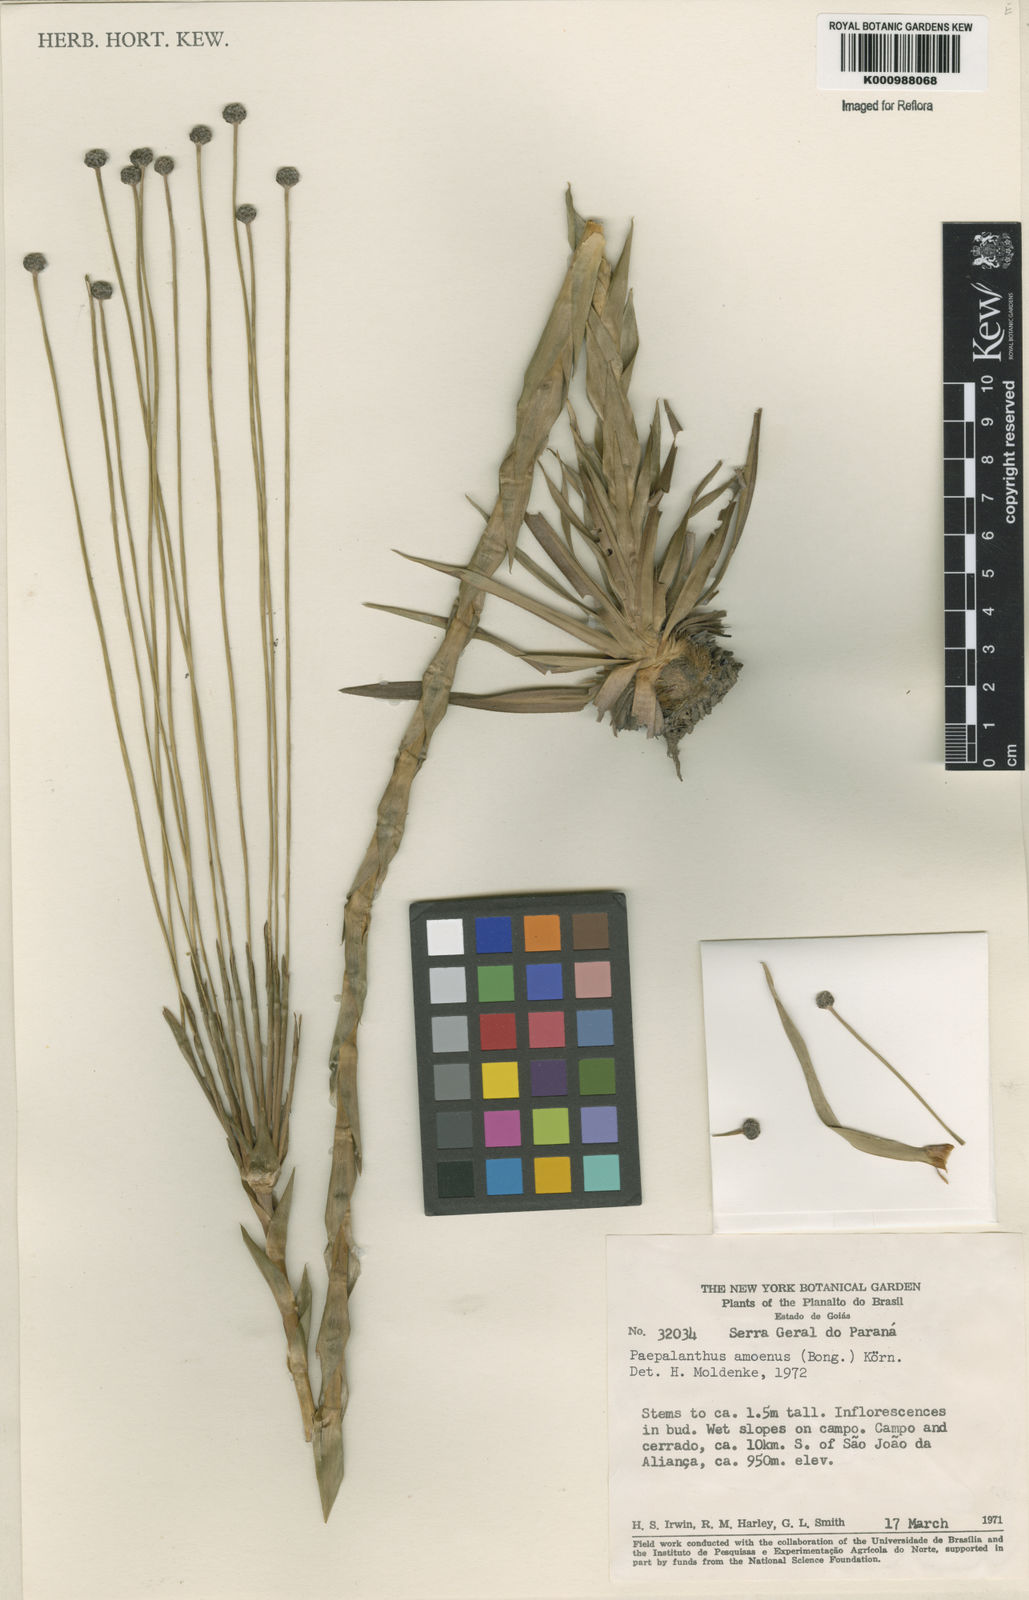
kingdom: Plantae
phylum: Tracheophyta
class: Liliopsida
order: Poales
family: Eriocaulaceae
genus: Paepalanthus
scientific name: Paepalanthus
